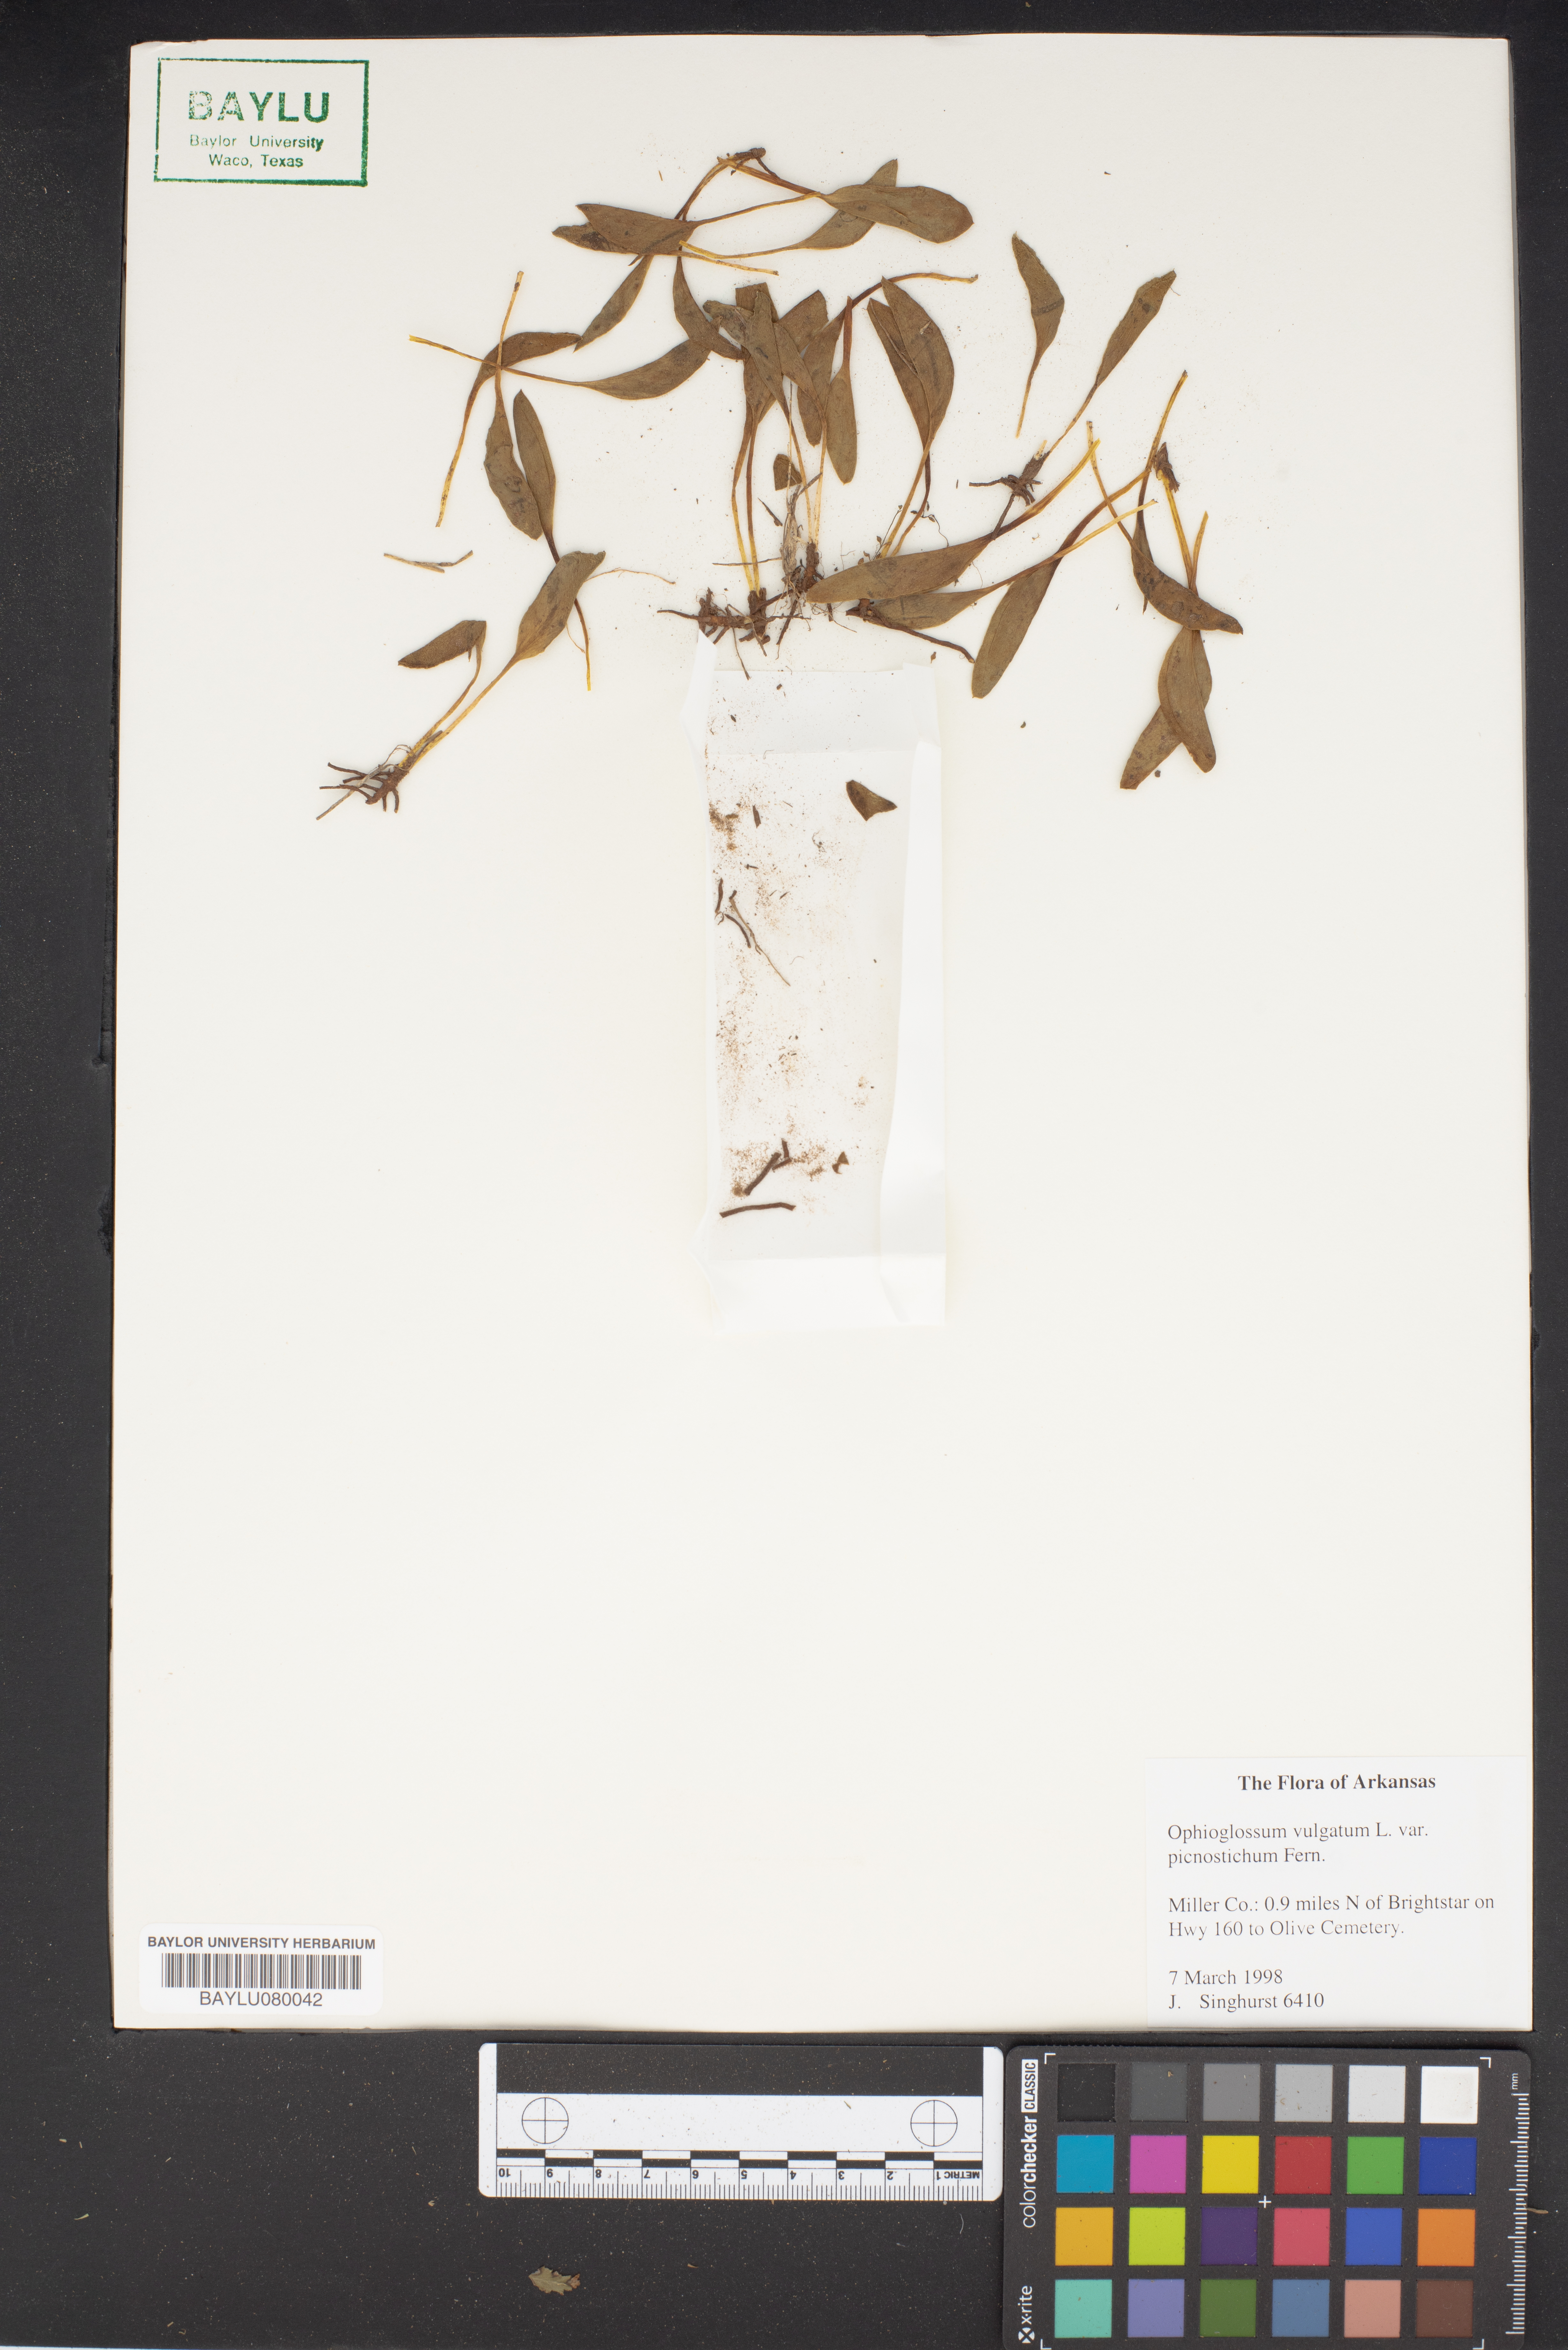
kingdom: Plantae
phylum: Tracheophyta
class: Polypodiopsida
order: Ophioglossales
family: Ophioglossaceae
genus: Ophioglossum
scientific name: Ophioglossum vulgatum
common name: Adder's-tongue
